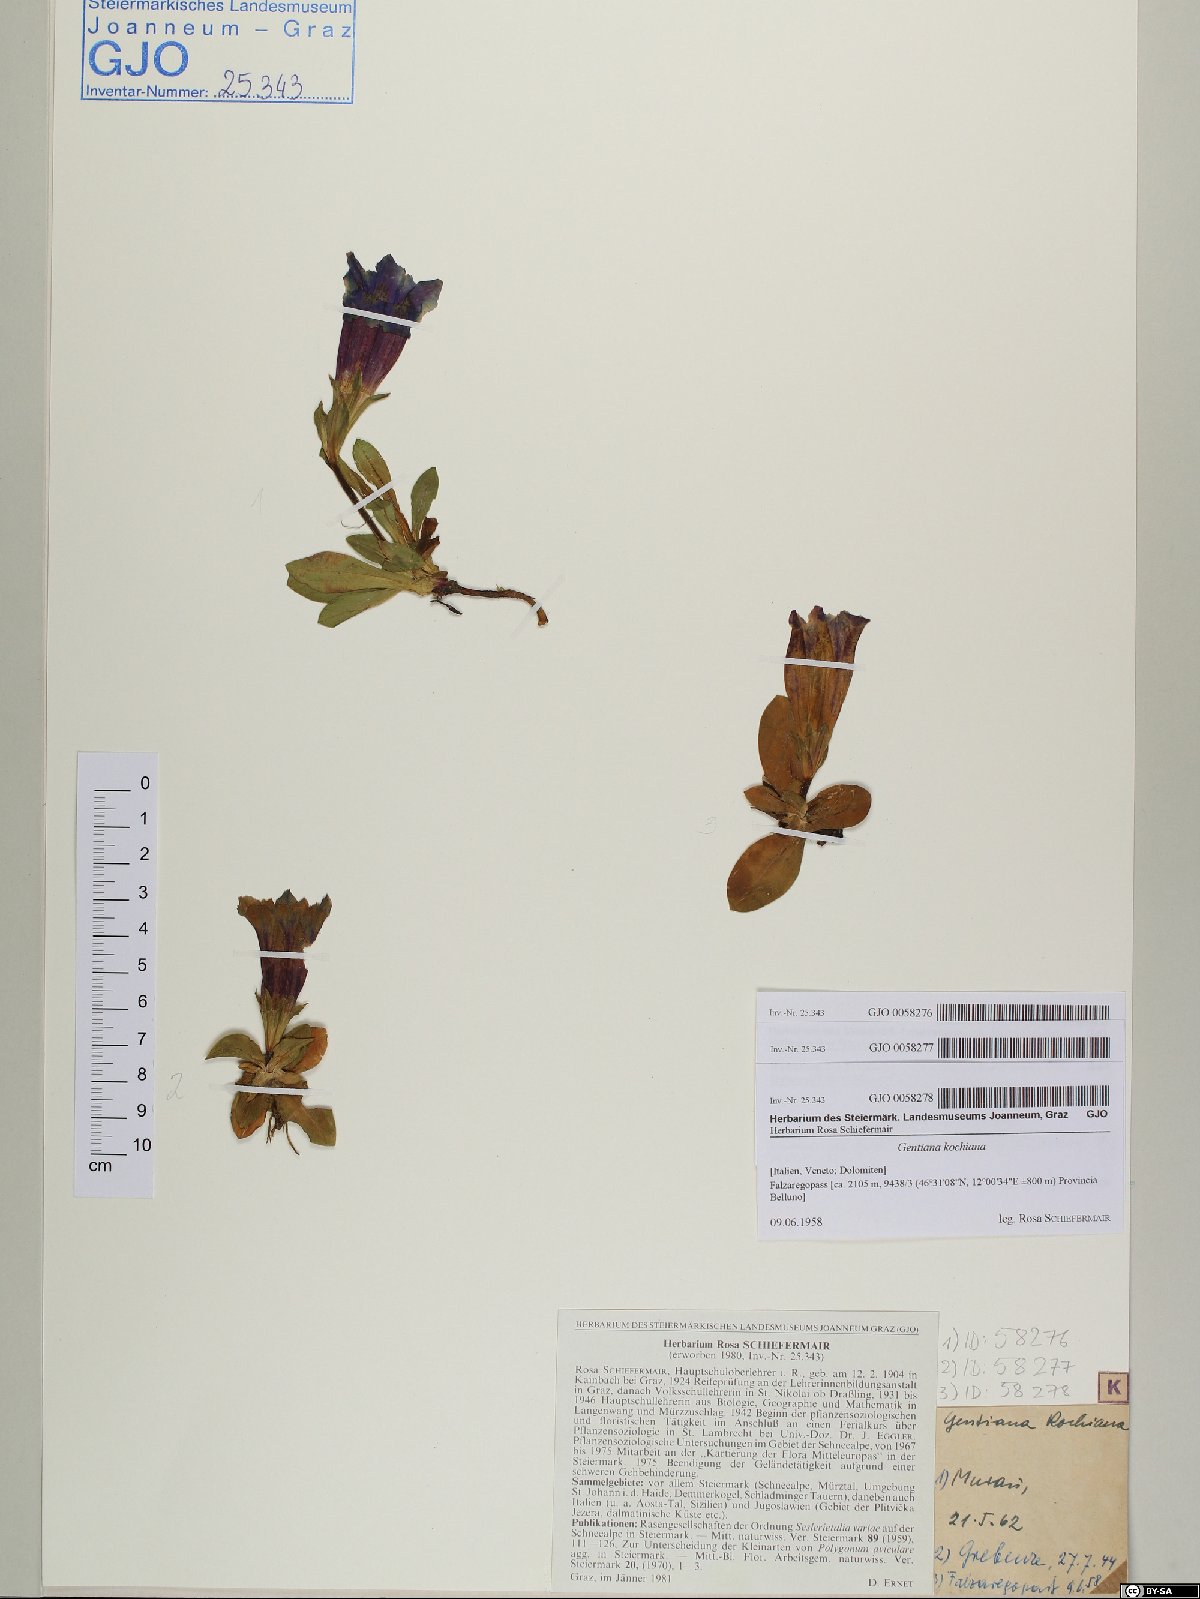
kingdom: Plantae
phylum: Tracheophyta
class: Magnoliopsida
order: Gentianales
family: Gentianaceae
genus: Gentiana
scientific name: Gentiana acaulis
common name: Trumpet gentian
